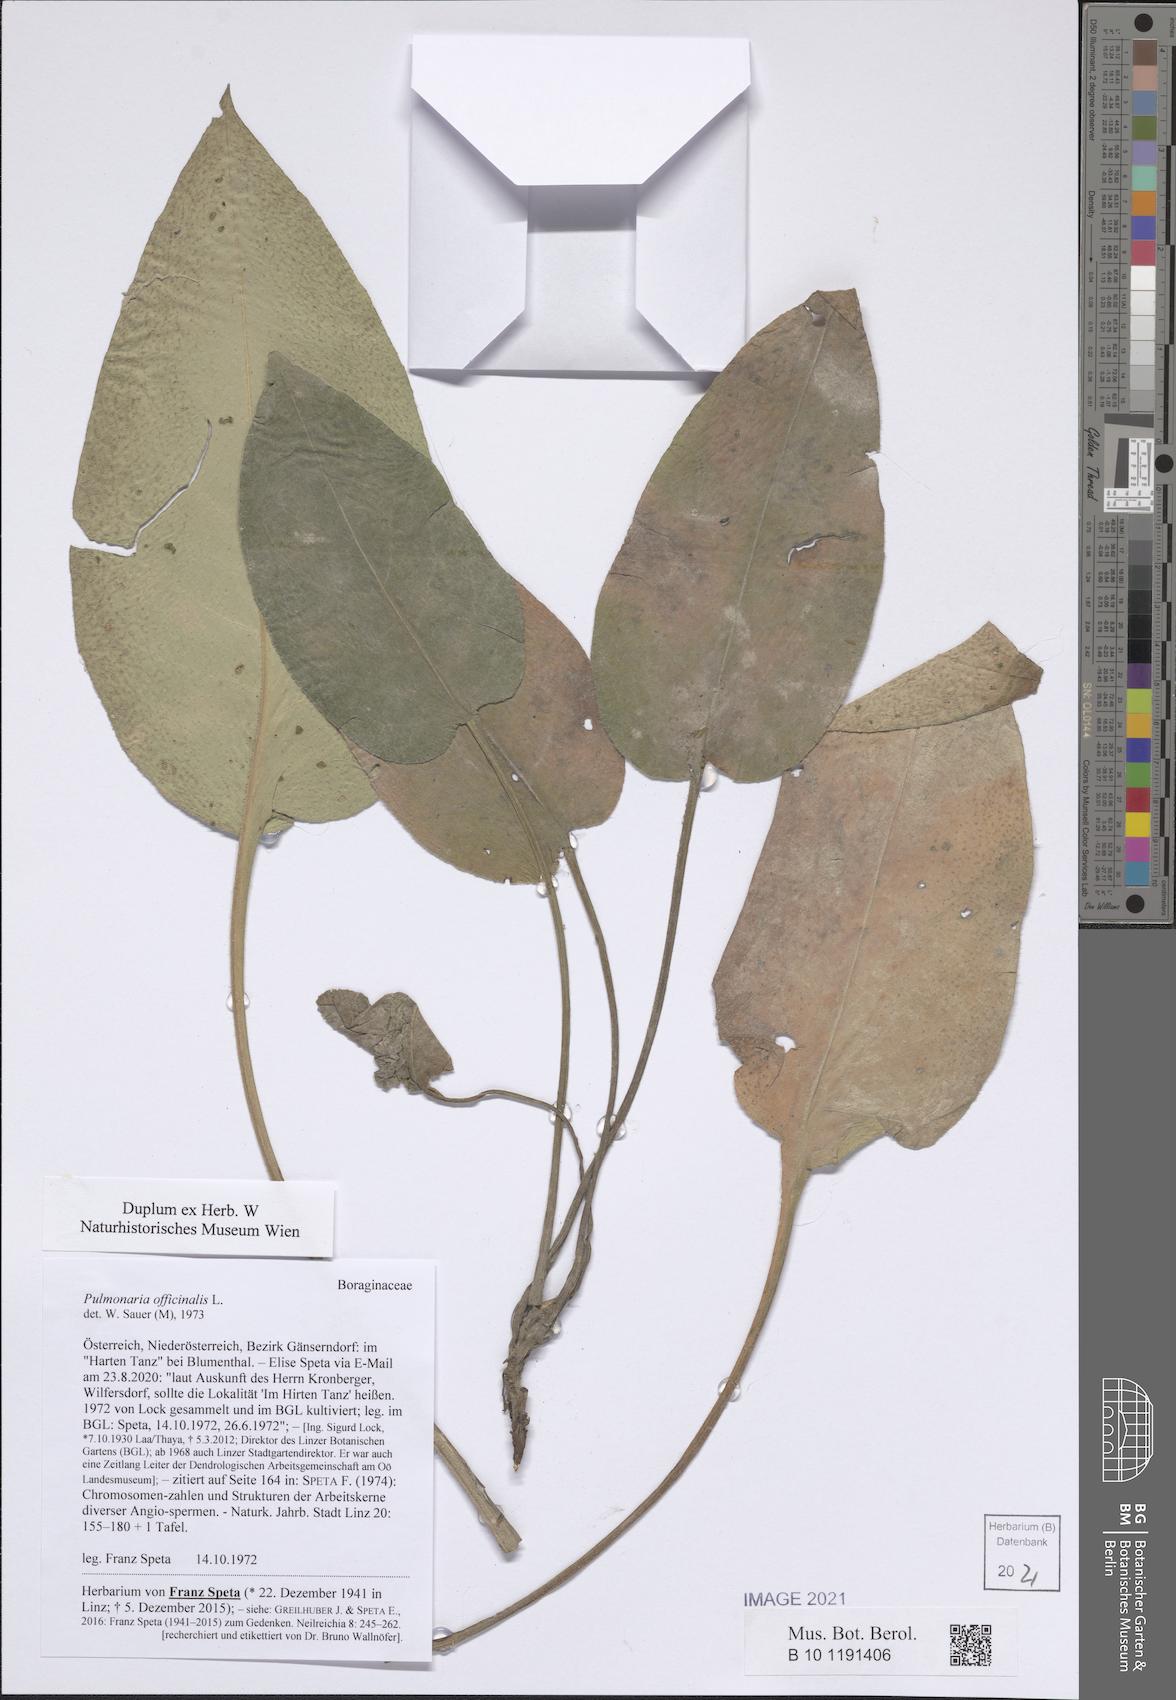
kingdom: Plantae
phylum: Tracheophyta
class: Magnoliopsida
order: Boraginales
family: Boraginaceae
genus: Pulmonaria
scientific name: Pulmonaria officinalis
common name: Lungwort
